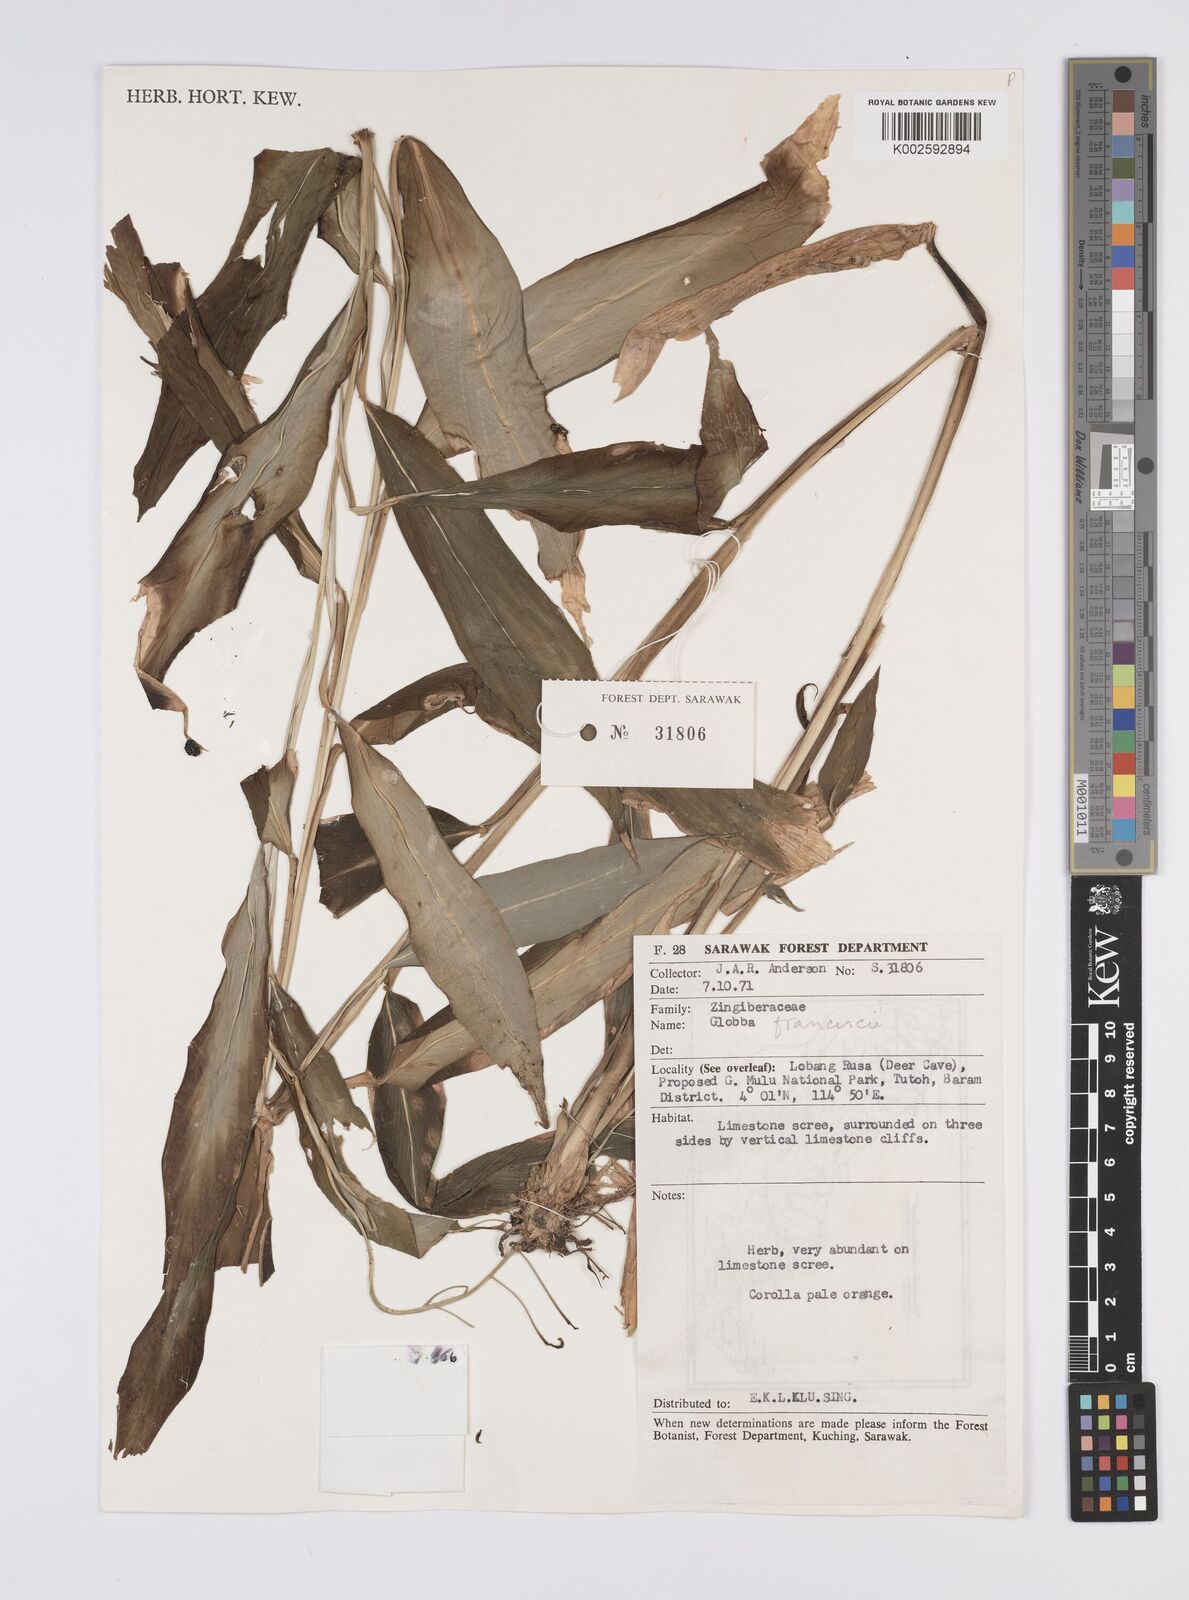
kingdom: Plantae
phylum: Tracheophyta
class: Liliopsida
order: Zingiberales
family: Zingiberaceae
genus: Globba
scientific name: Globba francisci
